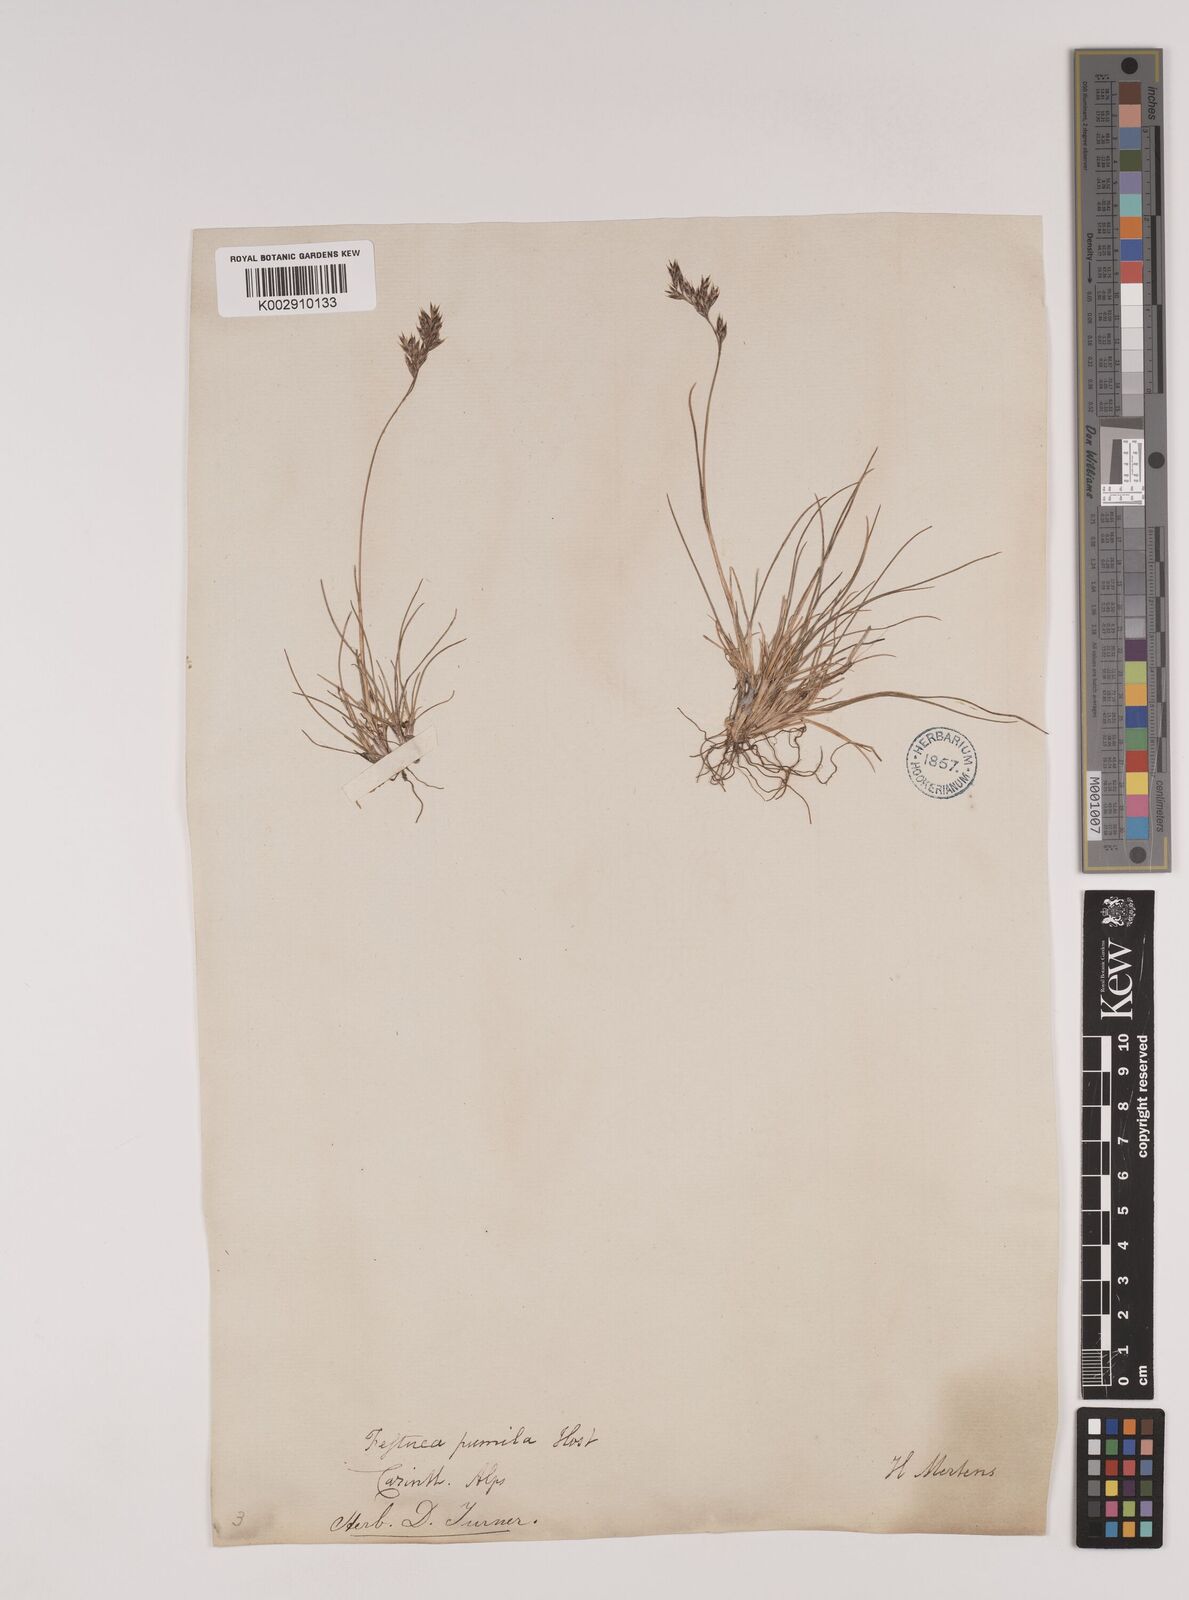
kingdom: Plantae
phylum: Tracheophyta
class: Liliopsida
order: Poales
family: Poaceae
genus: Festuca
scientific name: Festuca
